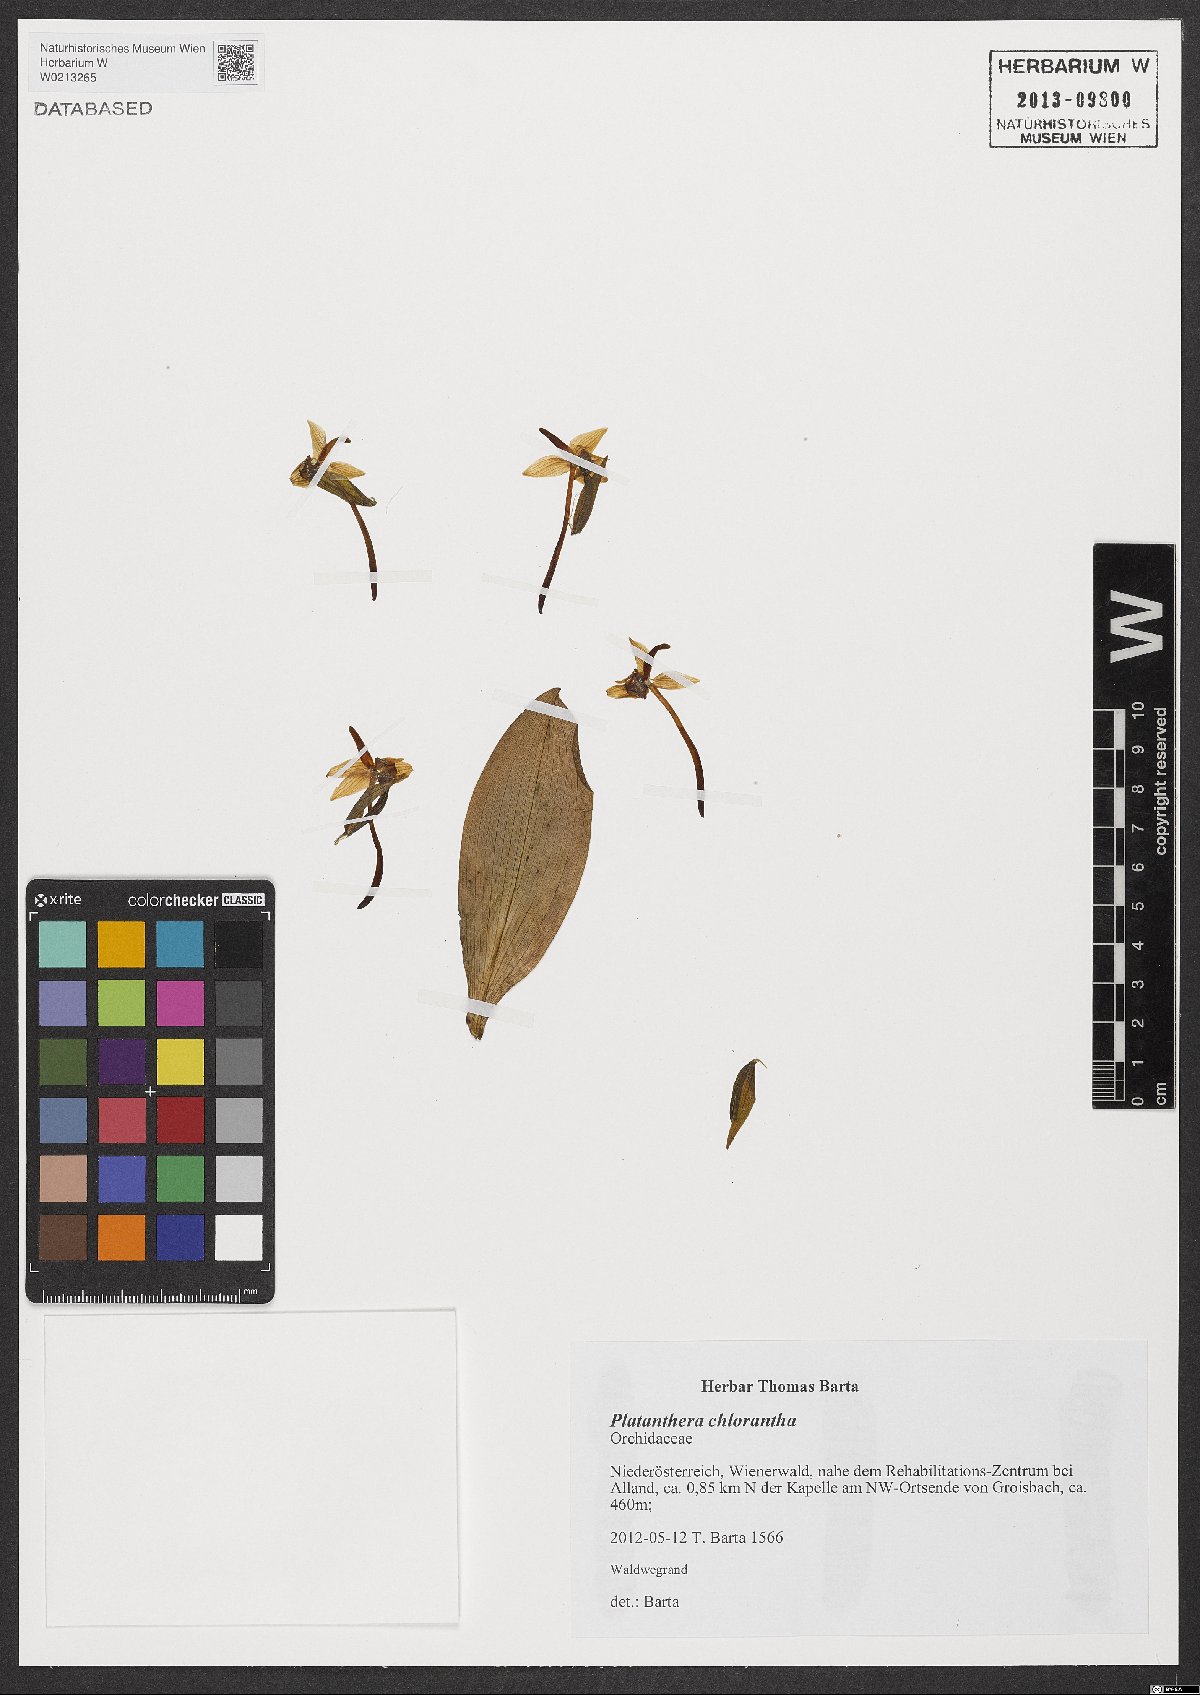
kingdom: Plantae
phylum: Tracheophyta
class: Liliopsida
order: Asparagales
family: Orchidaceae
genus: Platanthera
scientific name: Platanthera chlorantha
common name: Greater butterfly-orchid
